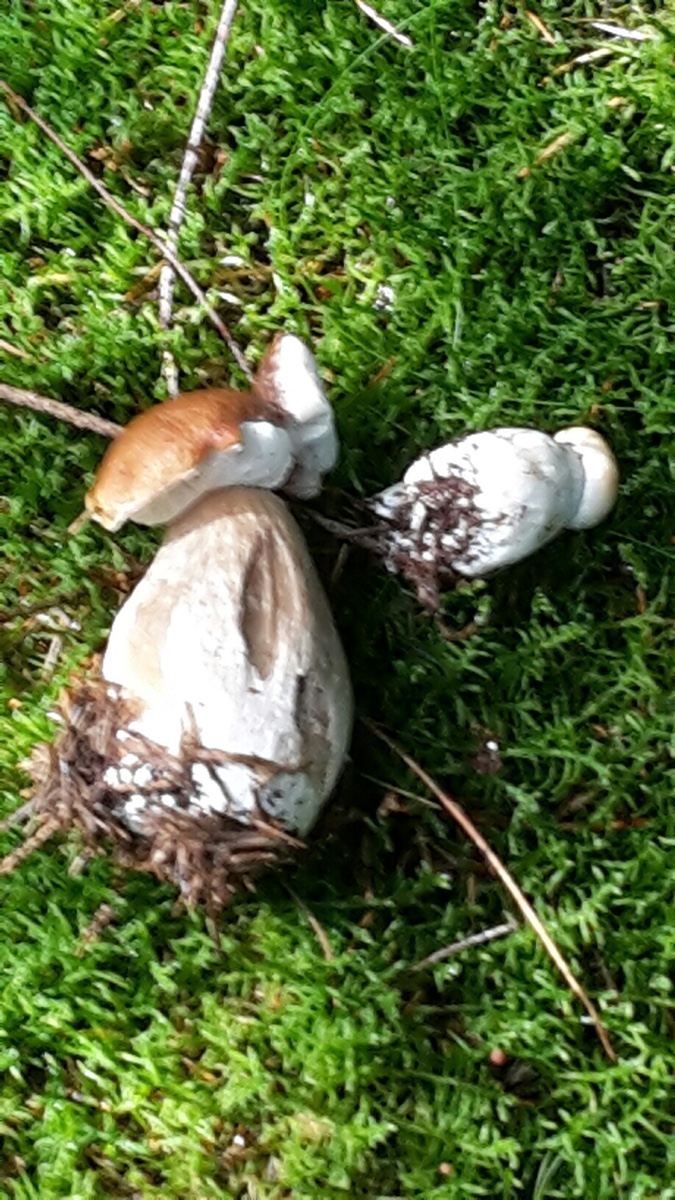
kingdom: Fungi
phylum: Basidiomycota
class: Agaricomycetes
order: Boletales
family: Boletaceae
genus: Boletus
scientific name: Boletus edulis
